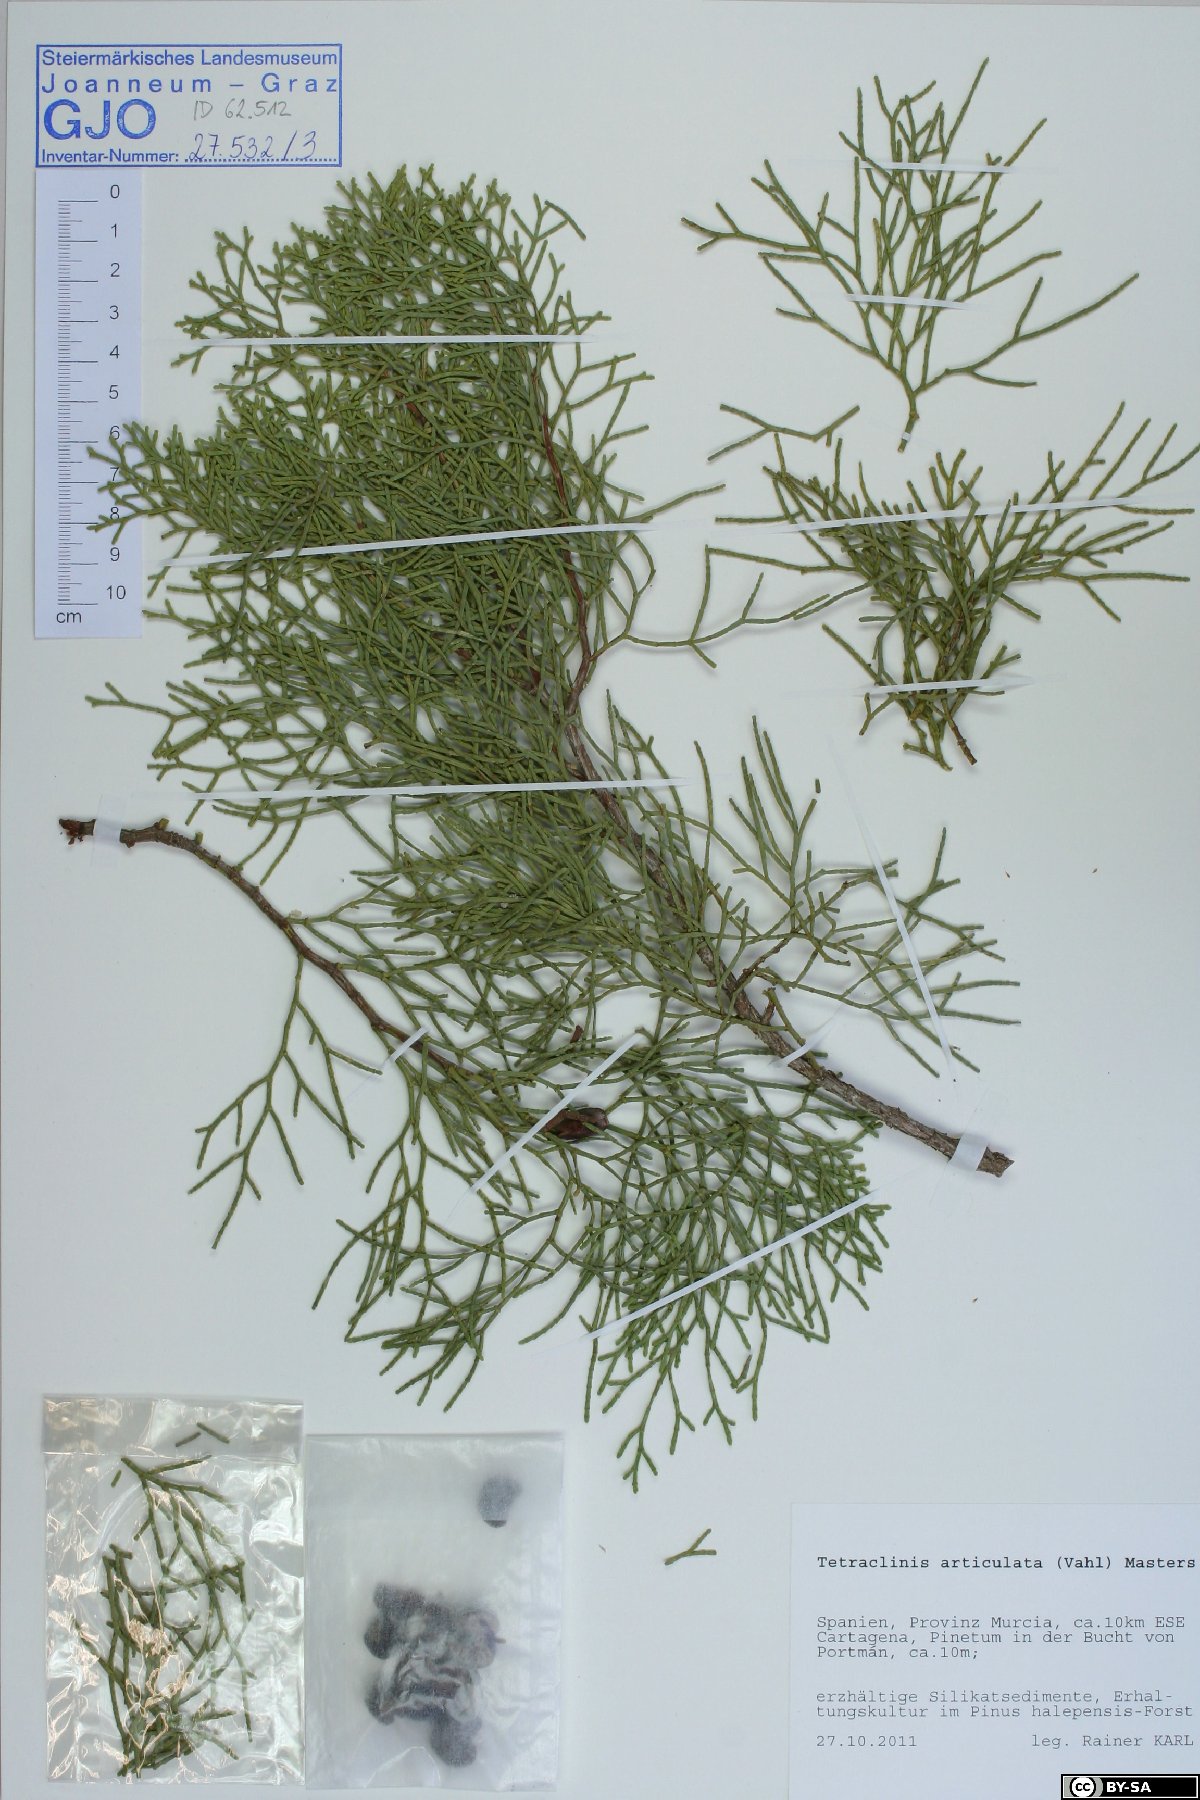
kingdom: Plantae
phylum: Tracheophyta
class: Pinopsida
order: Pinales
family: Cupressaceae
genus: Tetraclinis
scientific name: Tetraclinis articulata
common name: Sandarac
